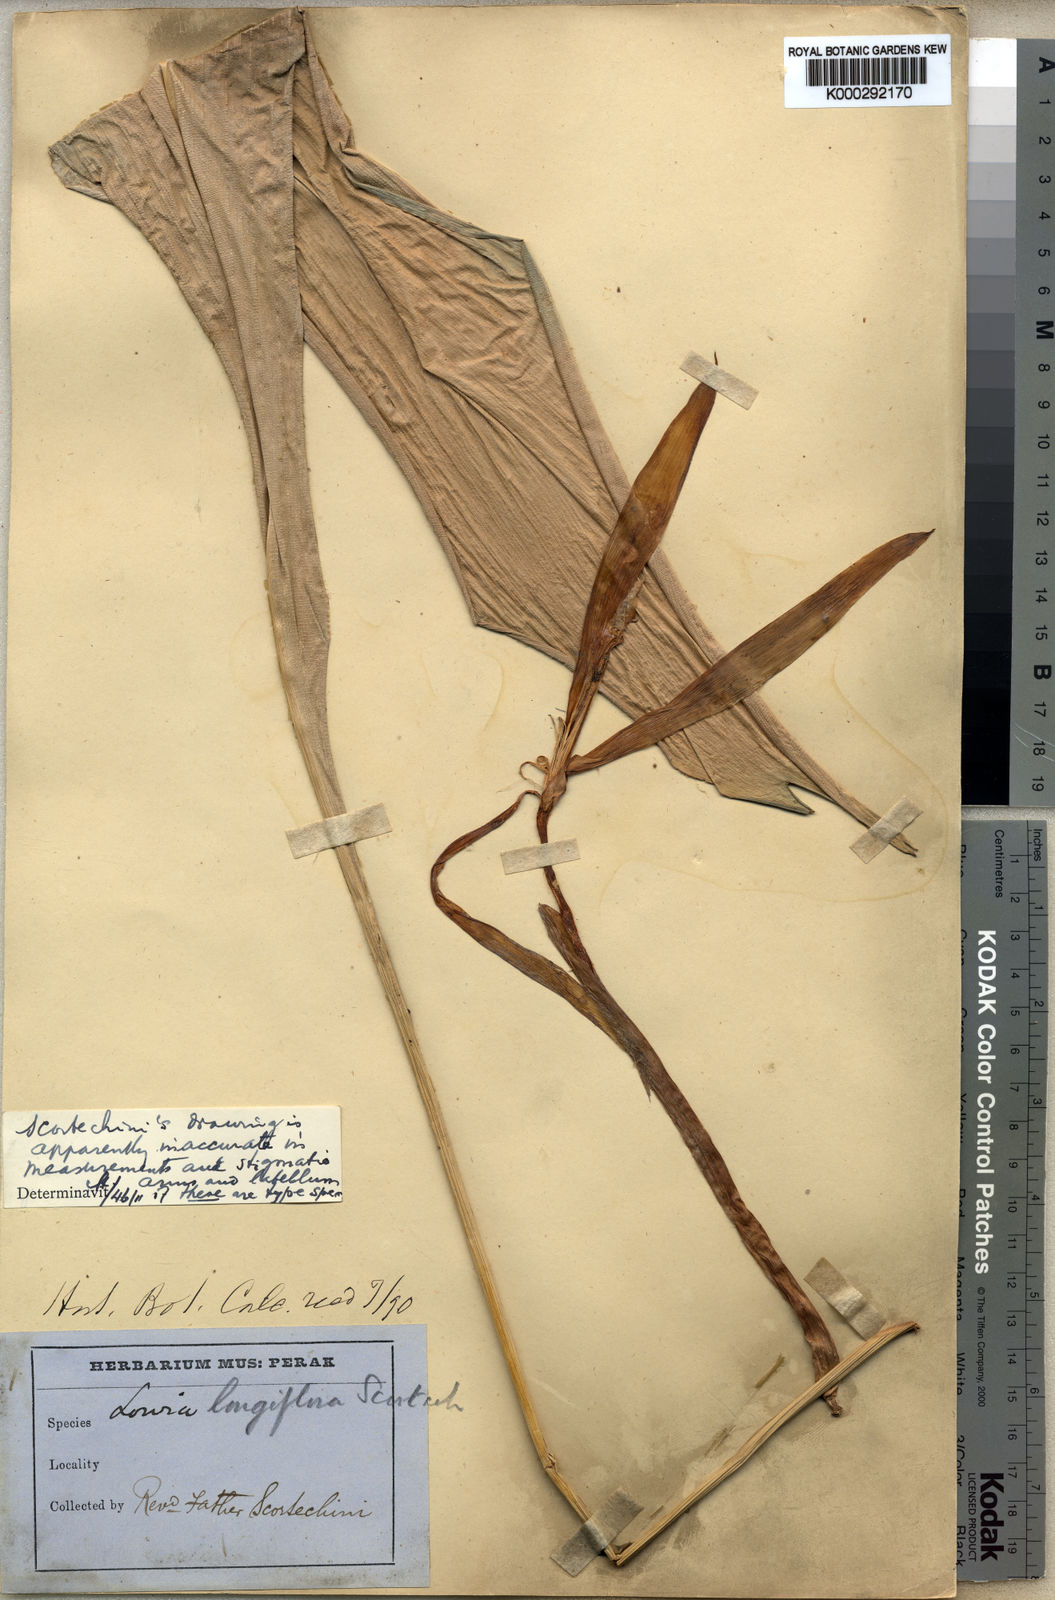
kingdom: Plantae
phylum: Tracheophyta
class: Liliopsida
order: Zingiberales
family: Lowiaceae
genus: Orchidantha
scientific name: Orchidantha longiflora
